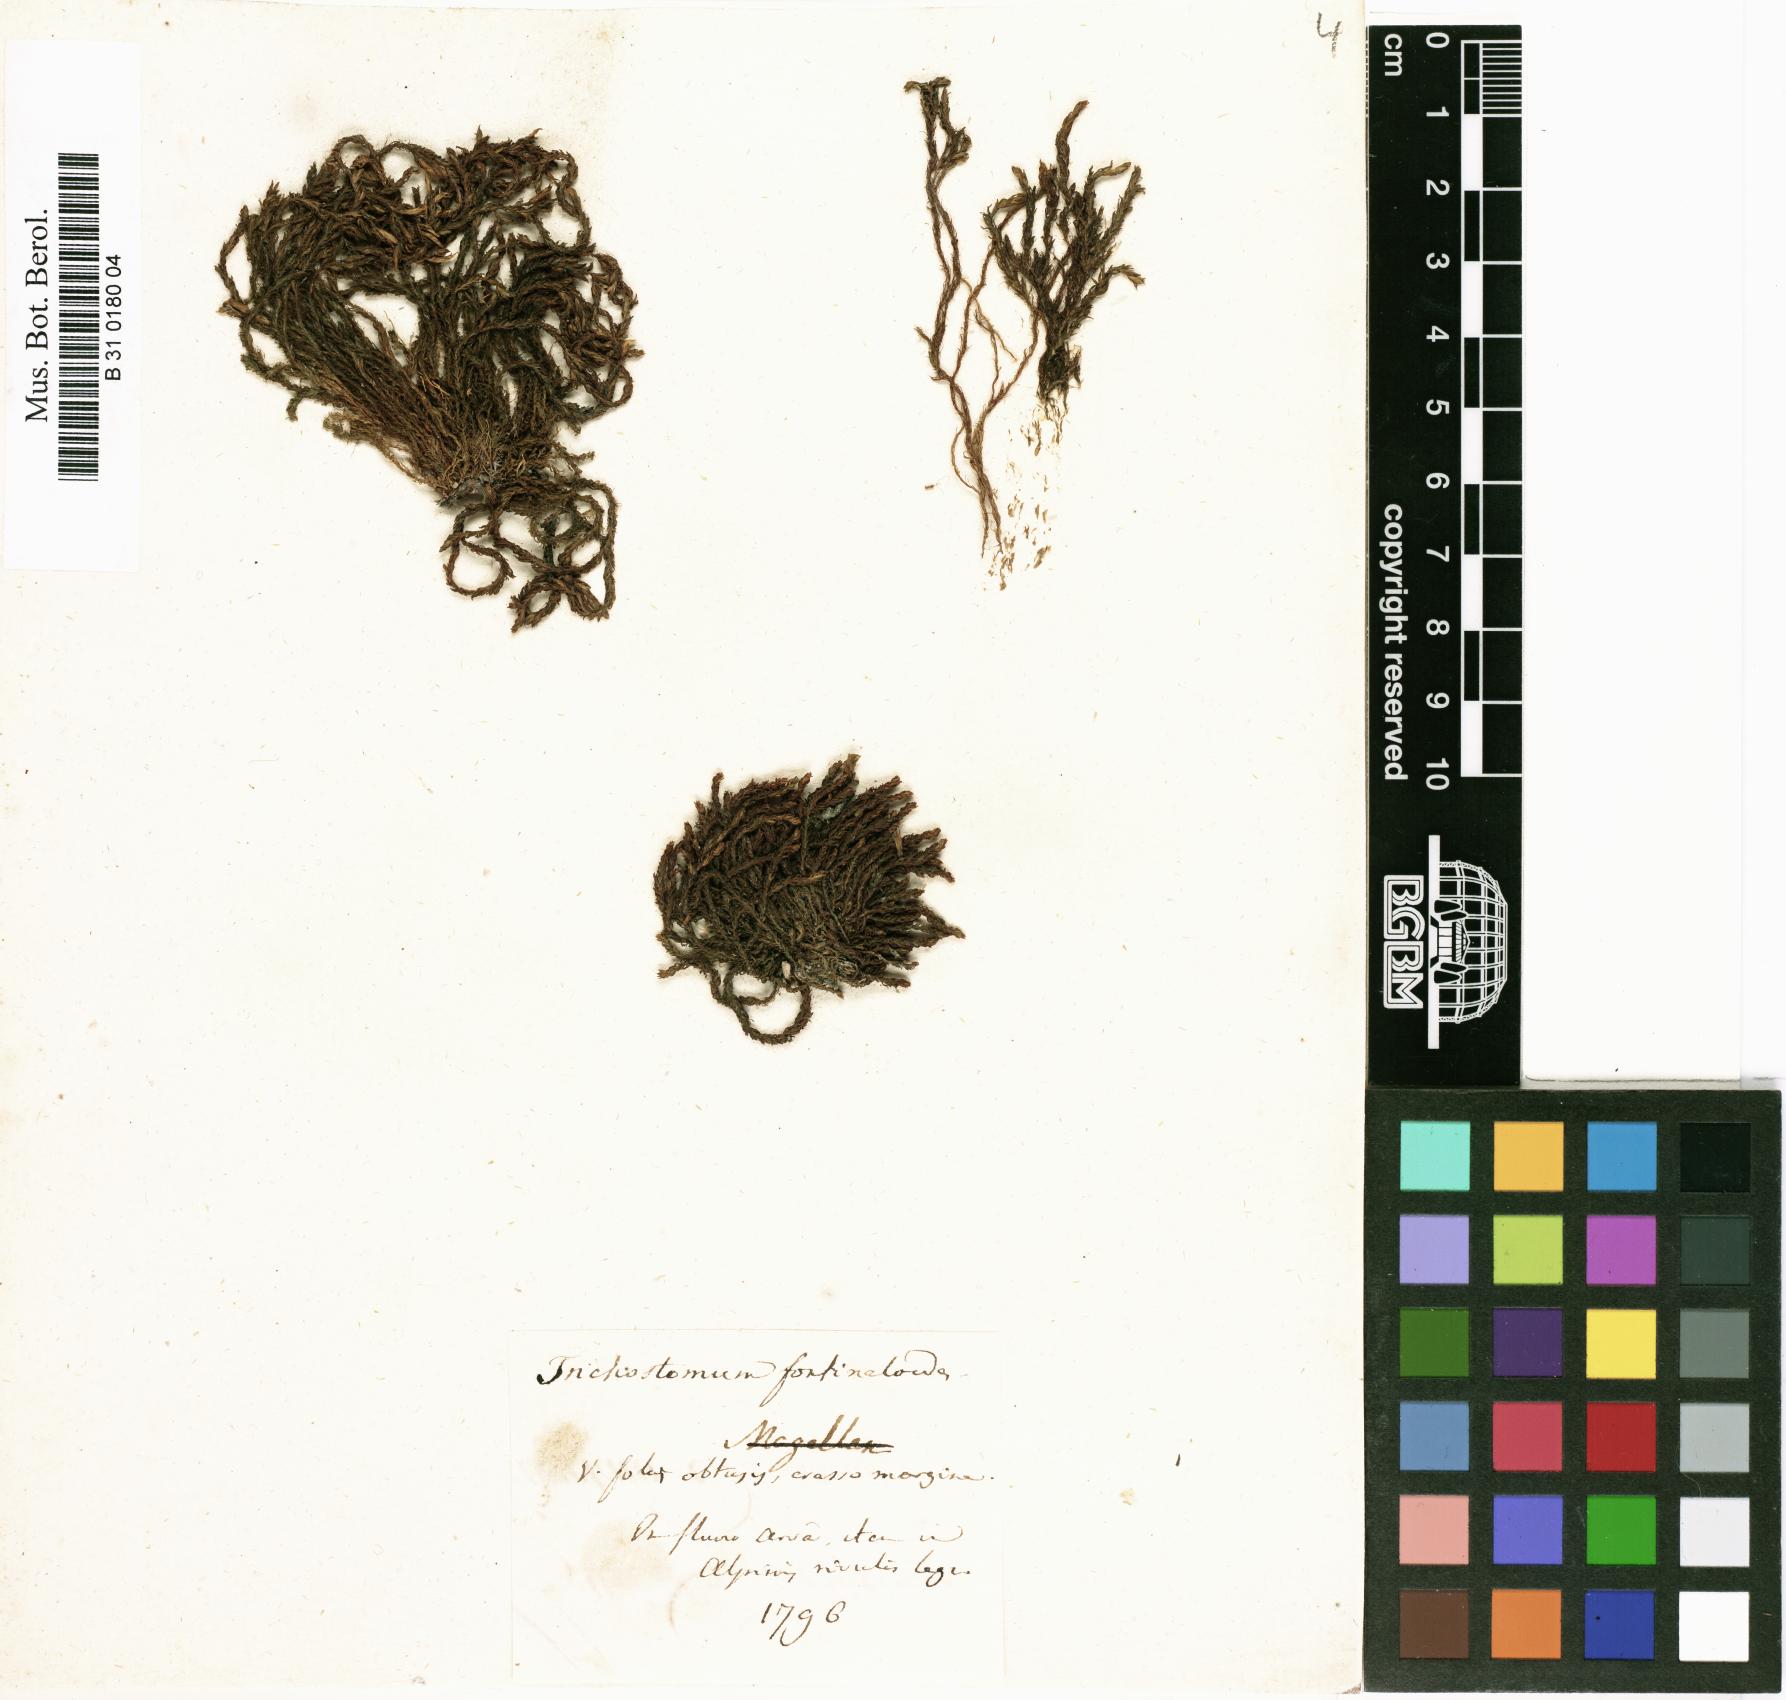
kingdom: Plantae
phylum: Bryophyta
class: Bryopsida
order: Pottiales
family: Pottiaceae
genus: Cinclidotus
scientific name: Cinclidotus fontinaloides
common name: Smaller lattice-moss
